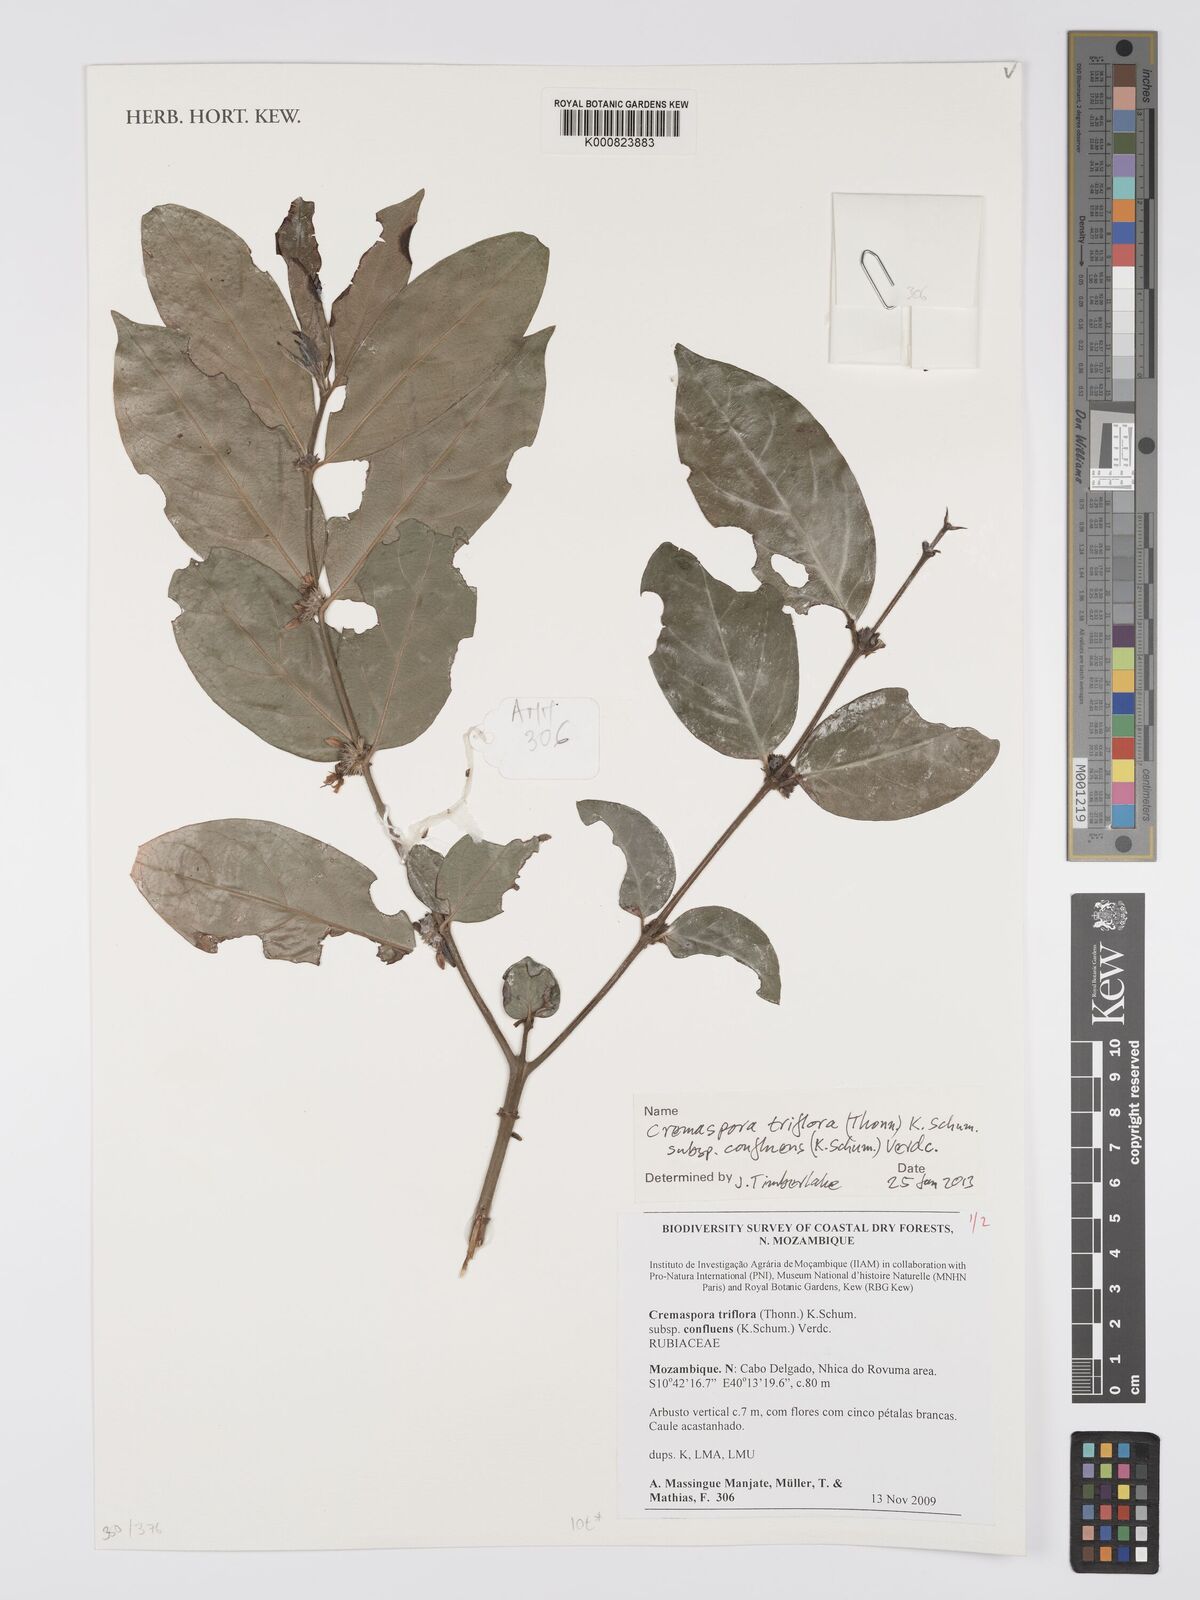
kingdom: Plantae
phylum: Tracheophyta
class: Magnoliopsida
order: Gentianales
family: Rubiaceae
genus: Cremaspora
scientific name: Cremaspora triflora
